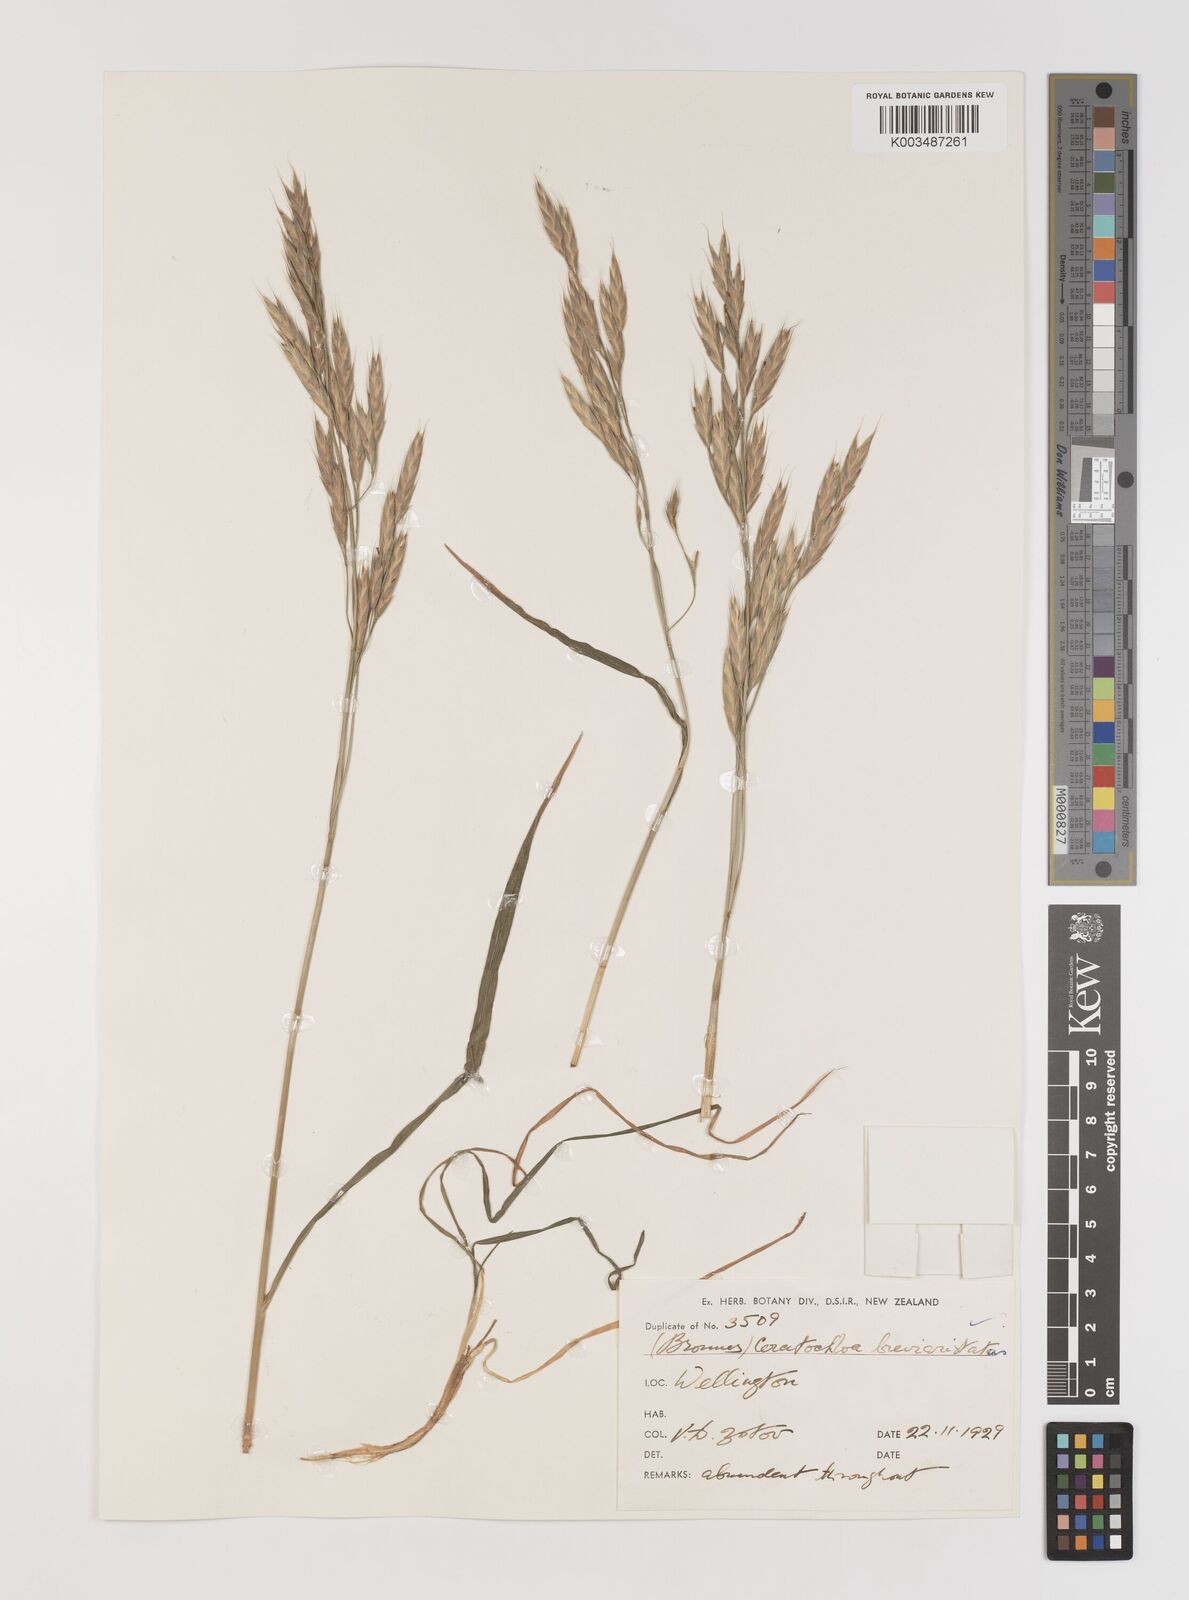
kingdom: Plantae
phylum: Tracheophyta
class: Liliopsida
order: Poales
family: Poaceae
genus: Bromus
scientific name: Bromus marginatus
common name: Western brome
